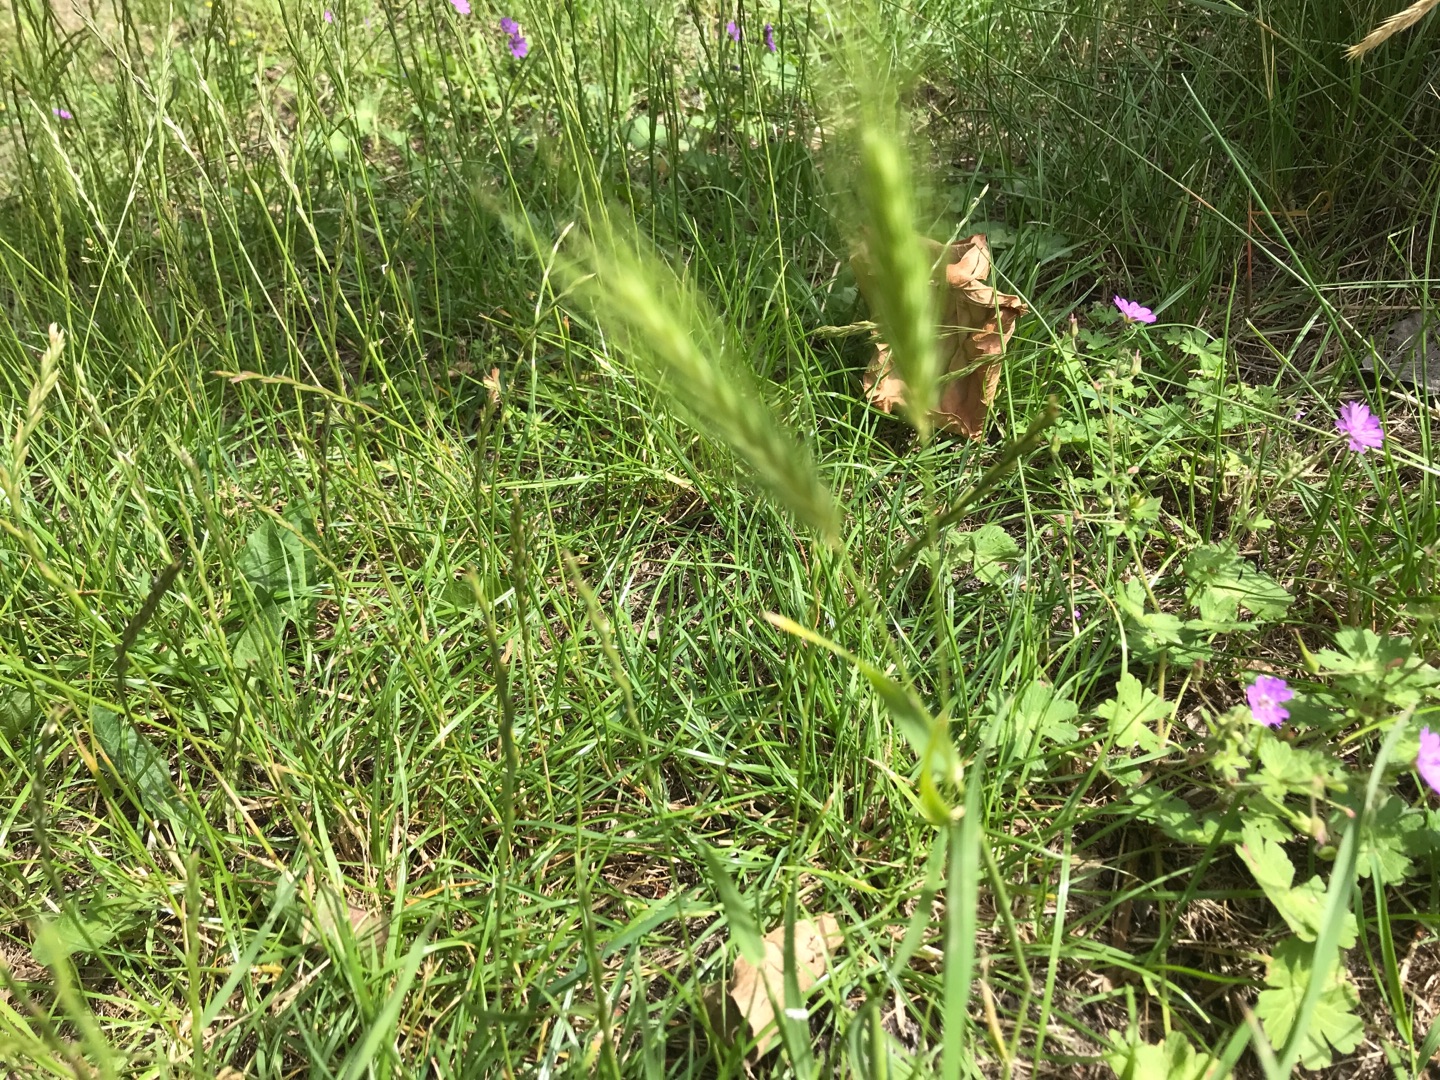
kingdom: Plantae
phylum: Tracheophyta
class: Liliopsida
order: Poales
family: Poaceae
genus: Hordeum
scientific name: Hordeum murinum
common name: Gold byg
